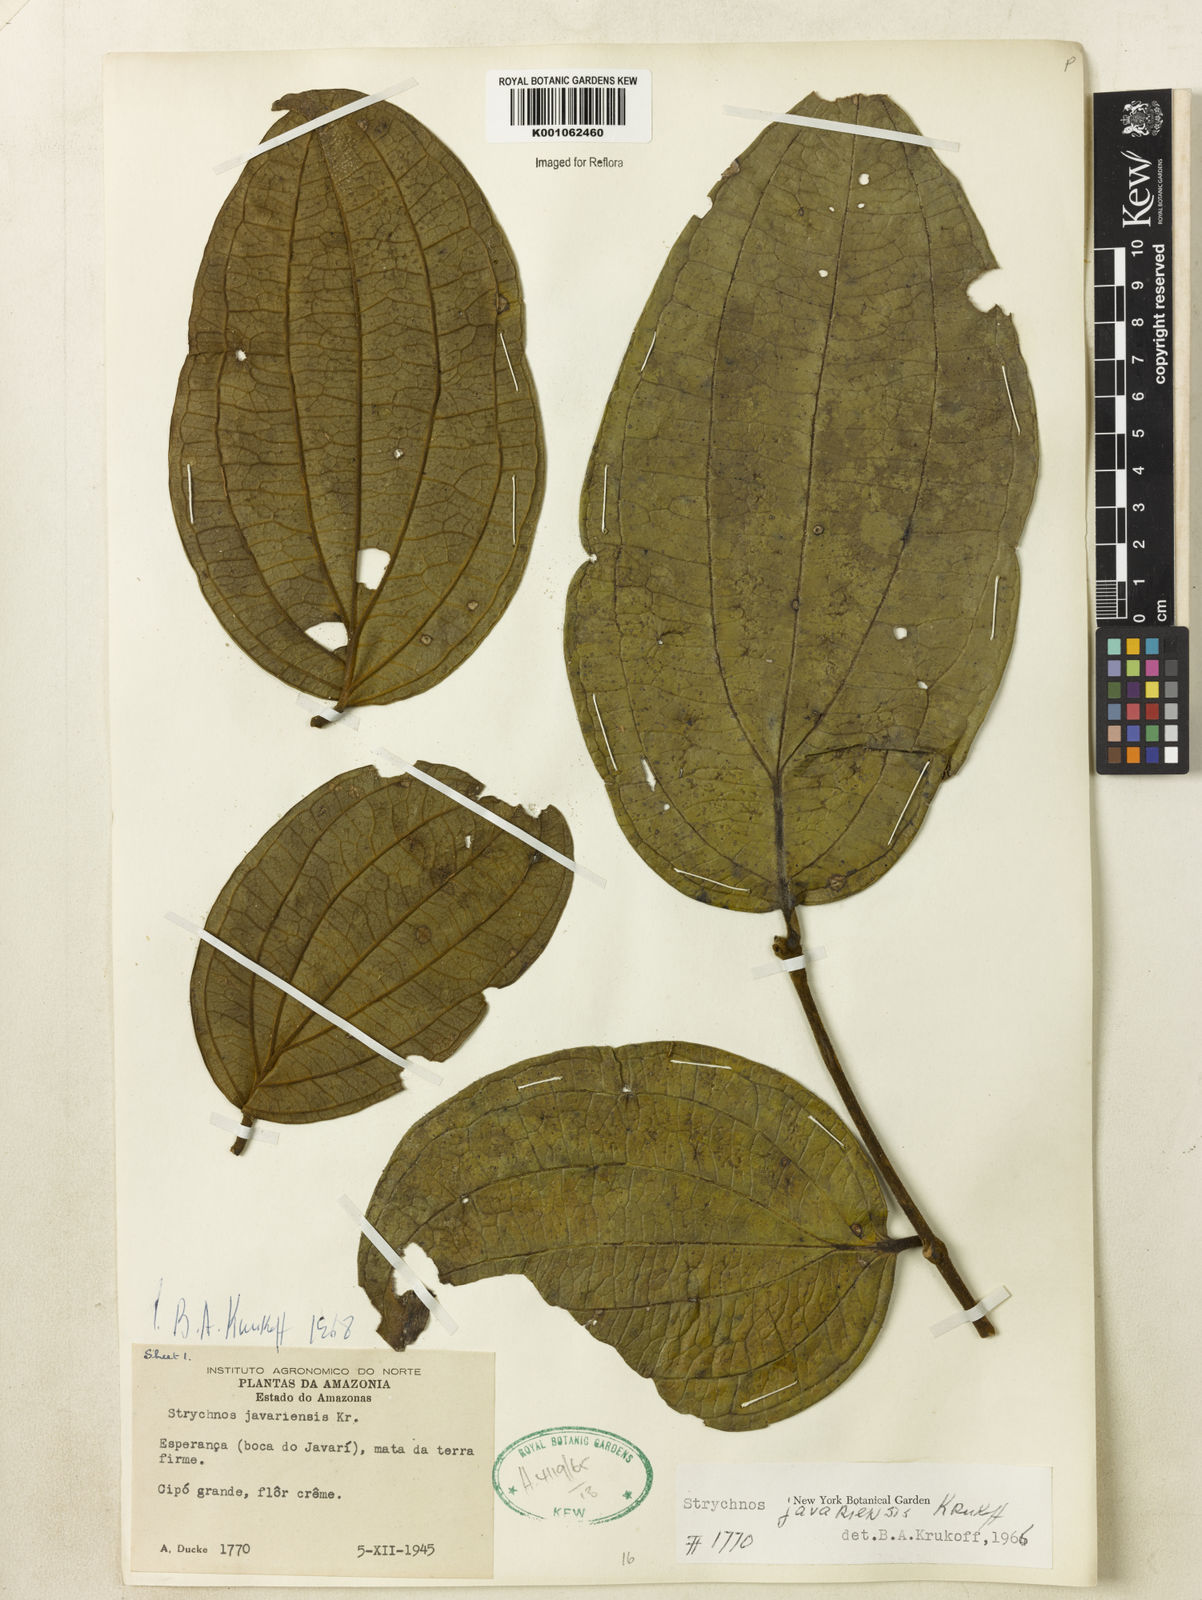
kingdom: Plantae
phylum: Tracheophyta
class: Magnoliopsida
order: Gentianales
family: Loganiaceae
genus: Strychnos
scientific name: Strychnos javariensis
